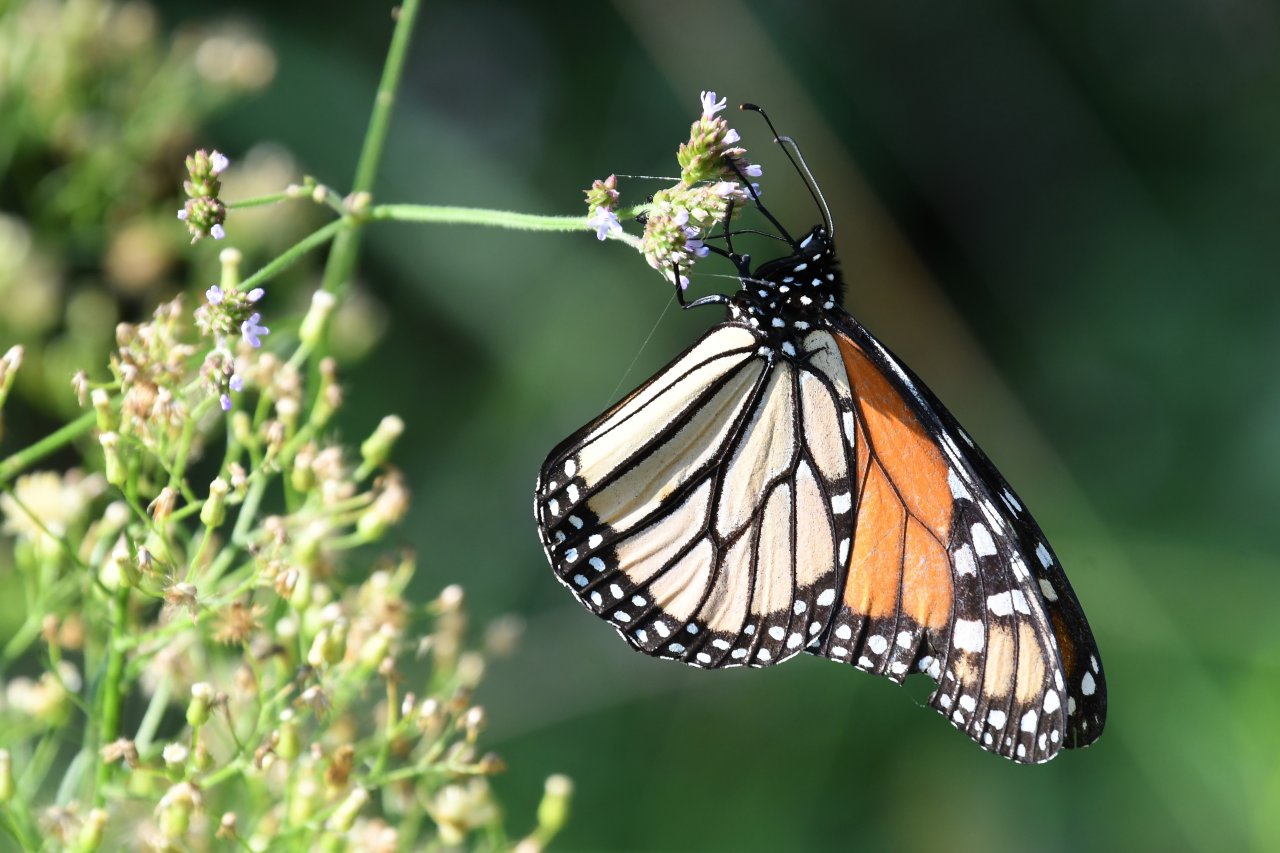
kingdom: Animalia
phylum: Arthropoda
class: Insecta
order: Lepidoptera
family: Nymphalidae
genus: Danaus
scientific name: Danaus plexippus
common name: Monarch
